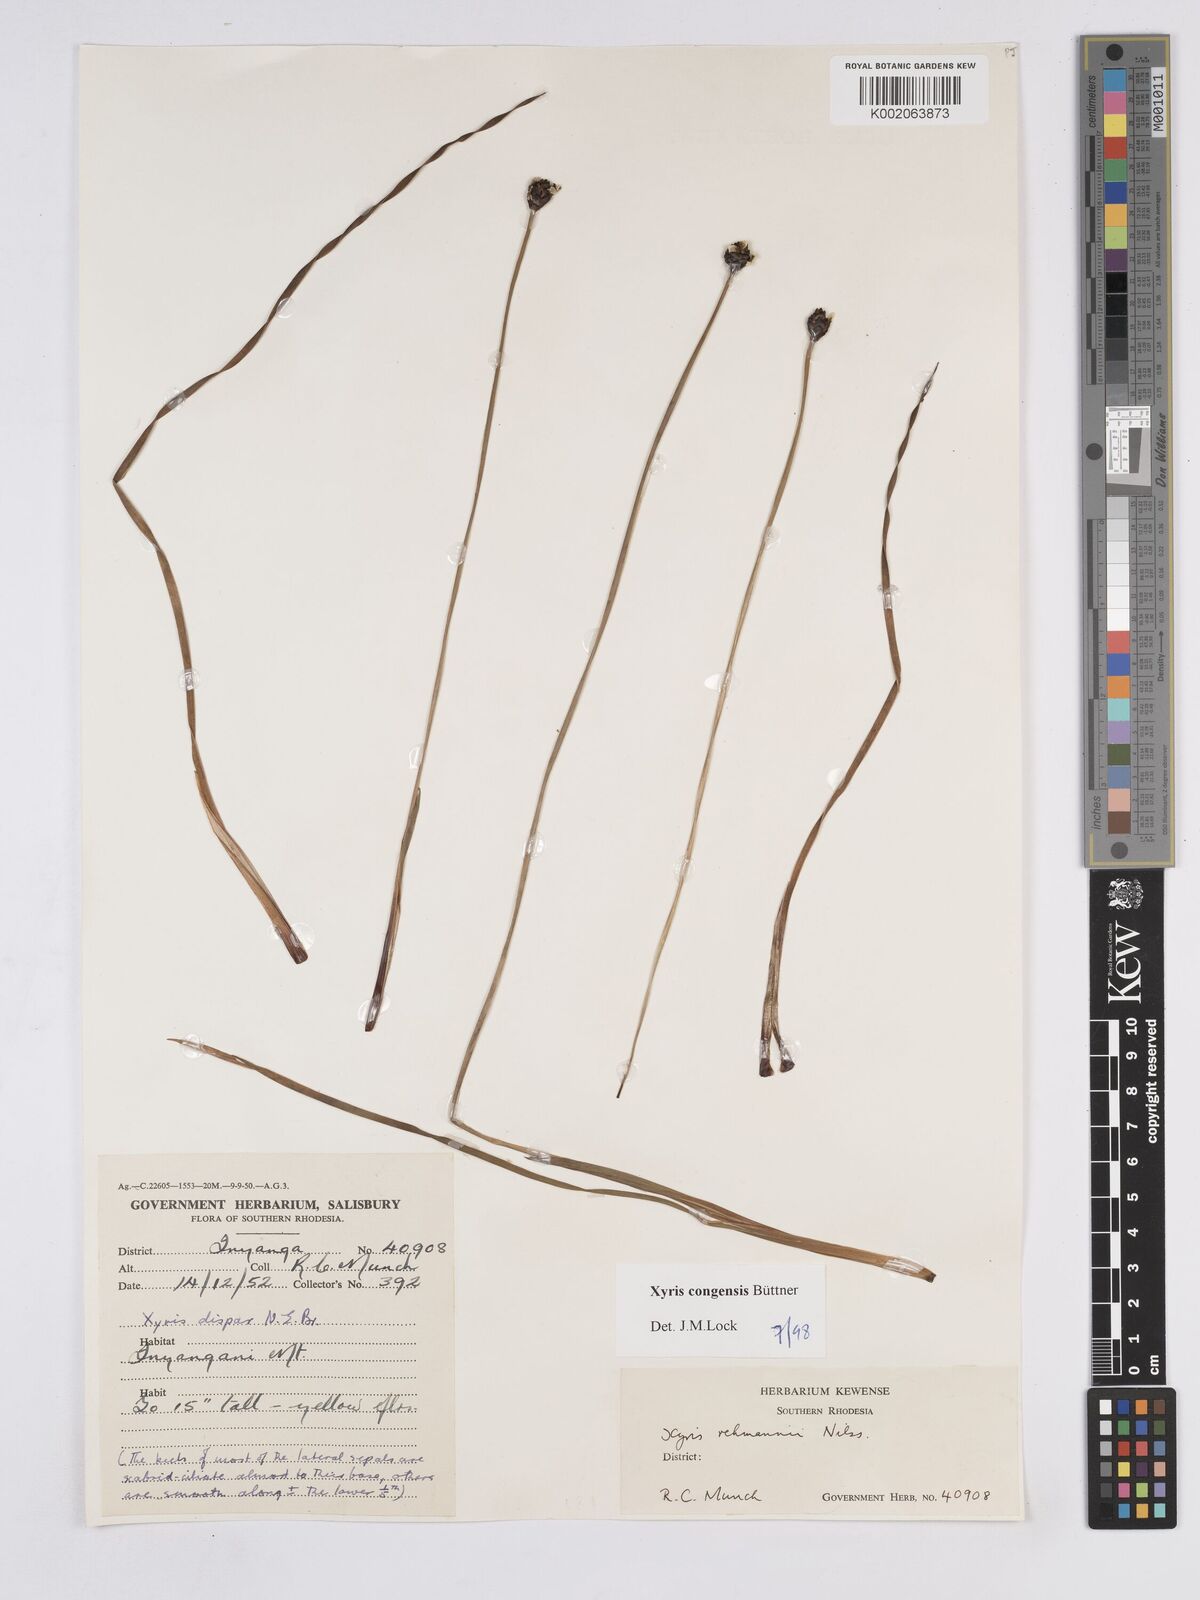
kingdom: Plantae
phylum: Tracheophyta
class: Liliopsida
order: Poales
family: Xyridaceae
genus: Xyris
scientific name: Xyris congensis
